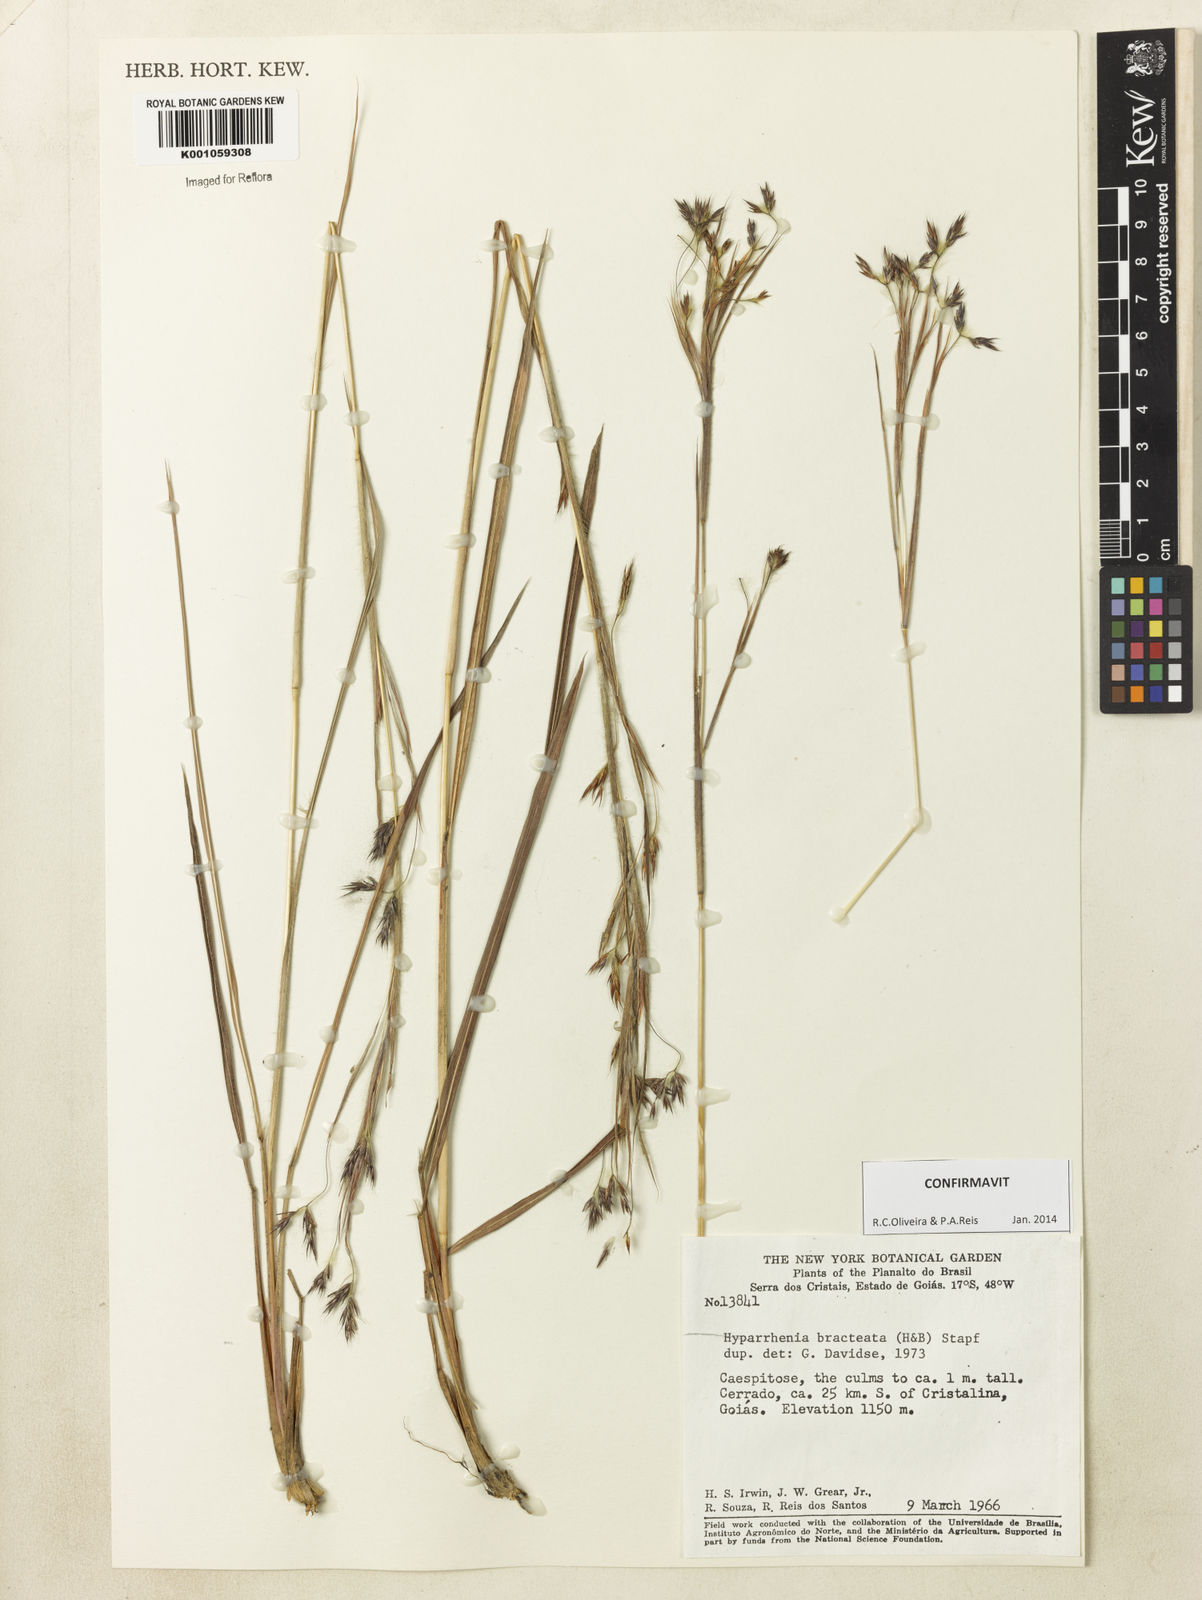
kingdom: Plantae
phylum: Tracheophyta
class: Liliopsida
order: Poales
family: Poaceae
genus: Hyparrhenia
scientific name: Hyparrhenia bracteata
